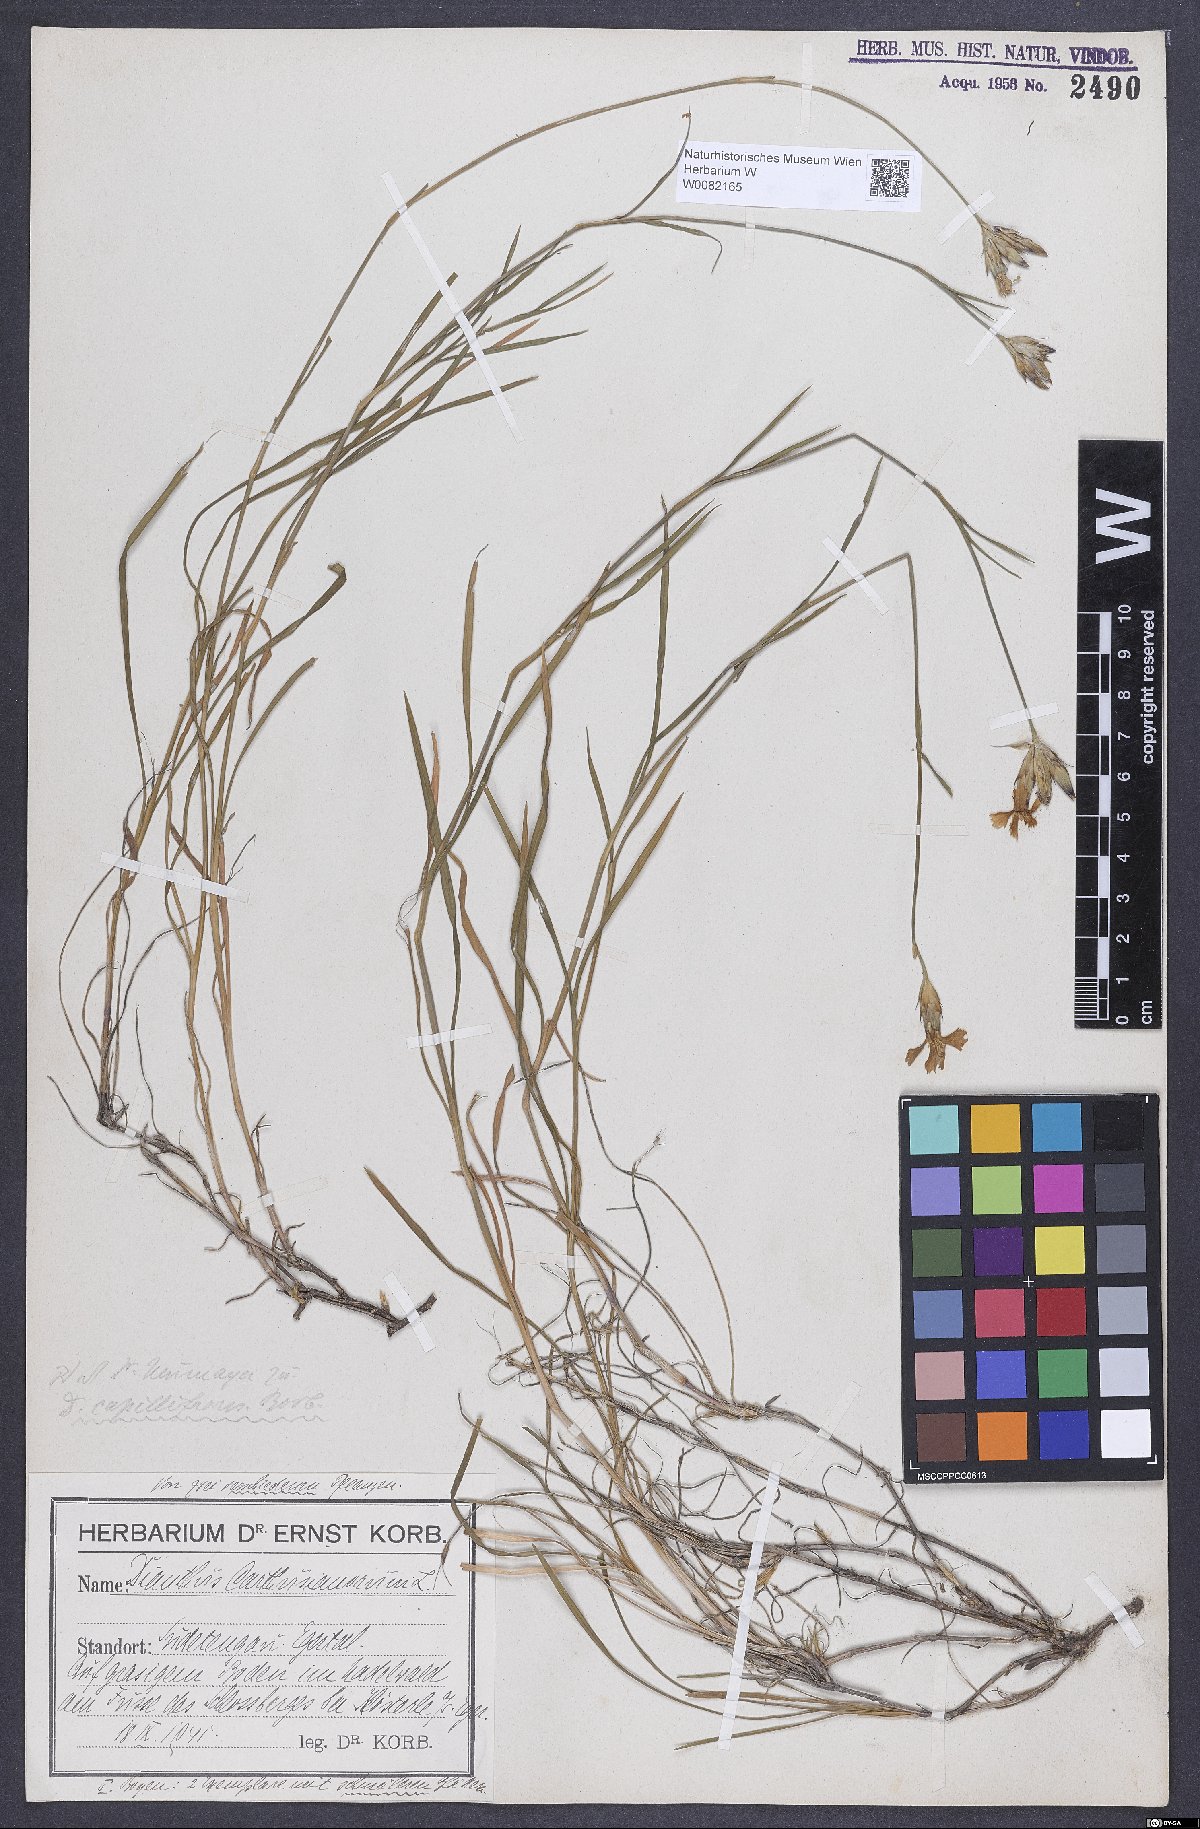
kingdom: Plantae
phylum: Tracheophyta
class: Magnoliopsida
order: Caryophyllales
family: Caryophyllaceae
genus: Dianthus
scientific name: Dianthus carthusianorum
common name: Carthusian pink
